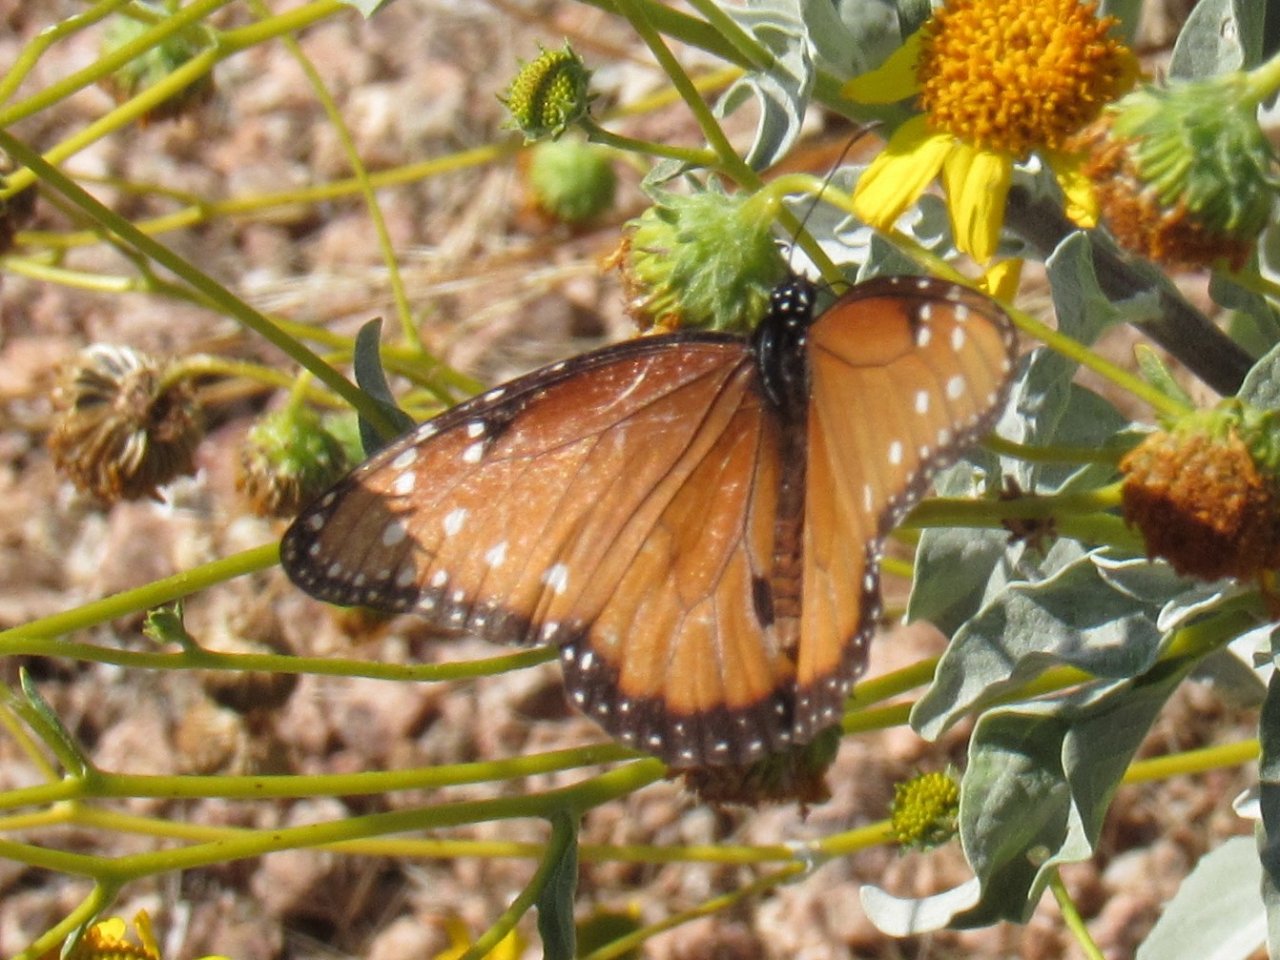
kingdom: Animalia
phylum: Arthropoda
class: Insecta
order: Lepidoptera
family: Nymphalidae
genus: Danaus
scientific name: Danaus gilippus
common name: Queen
